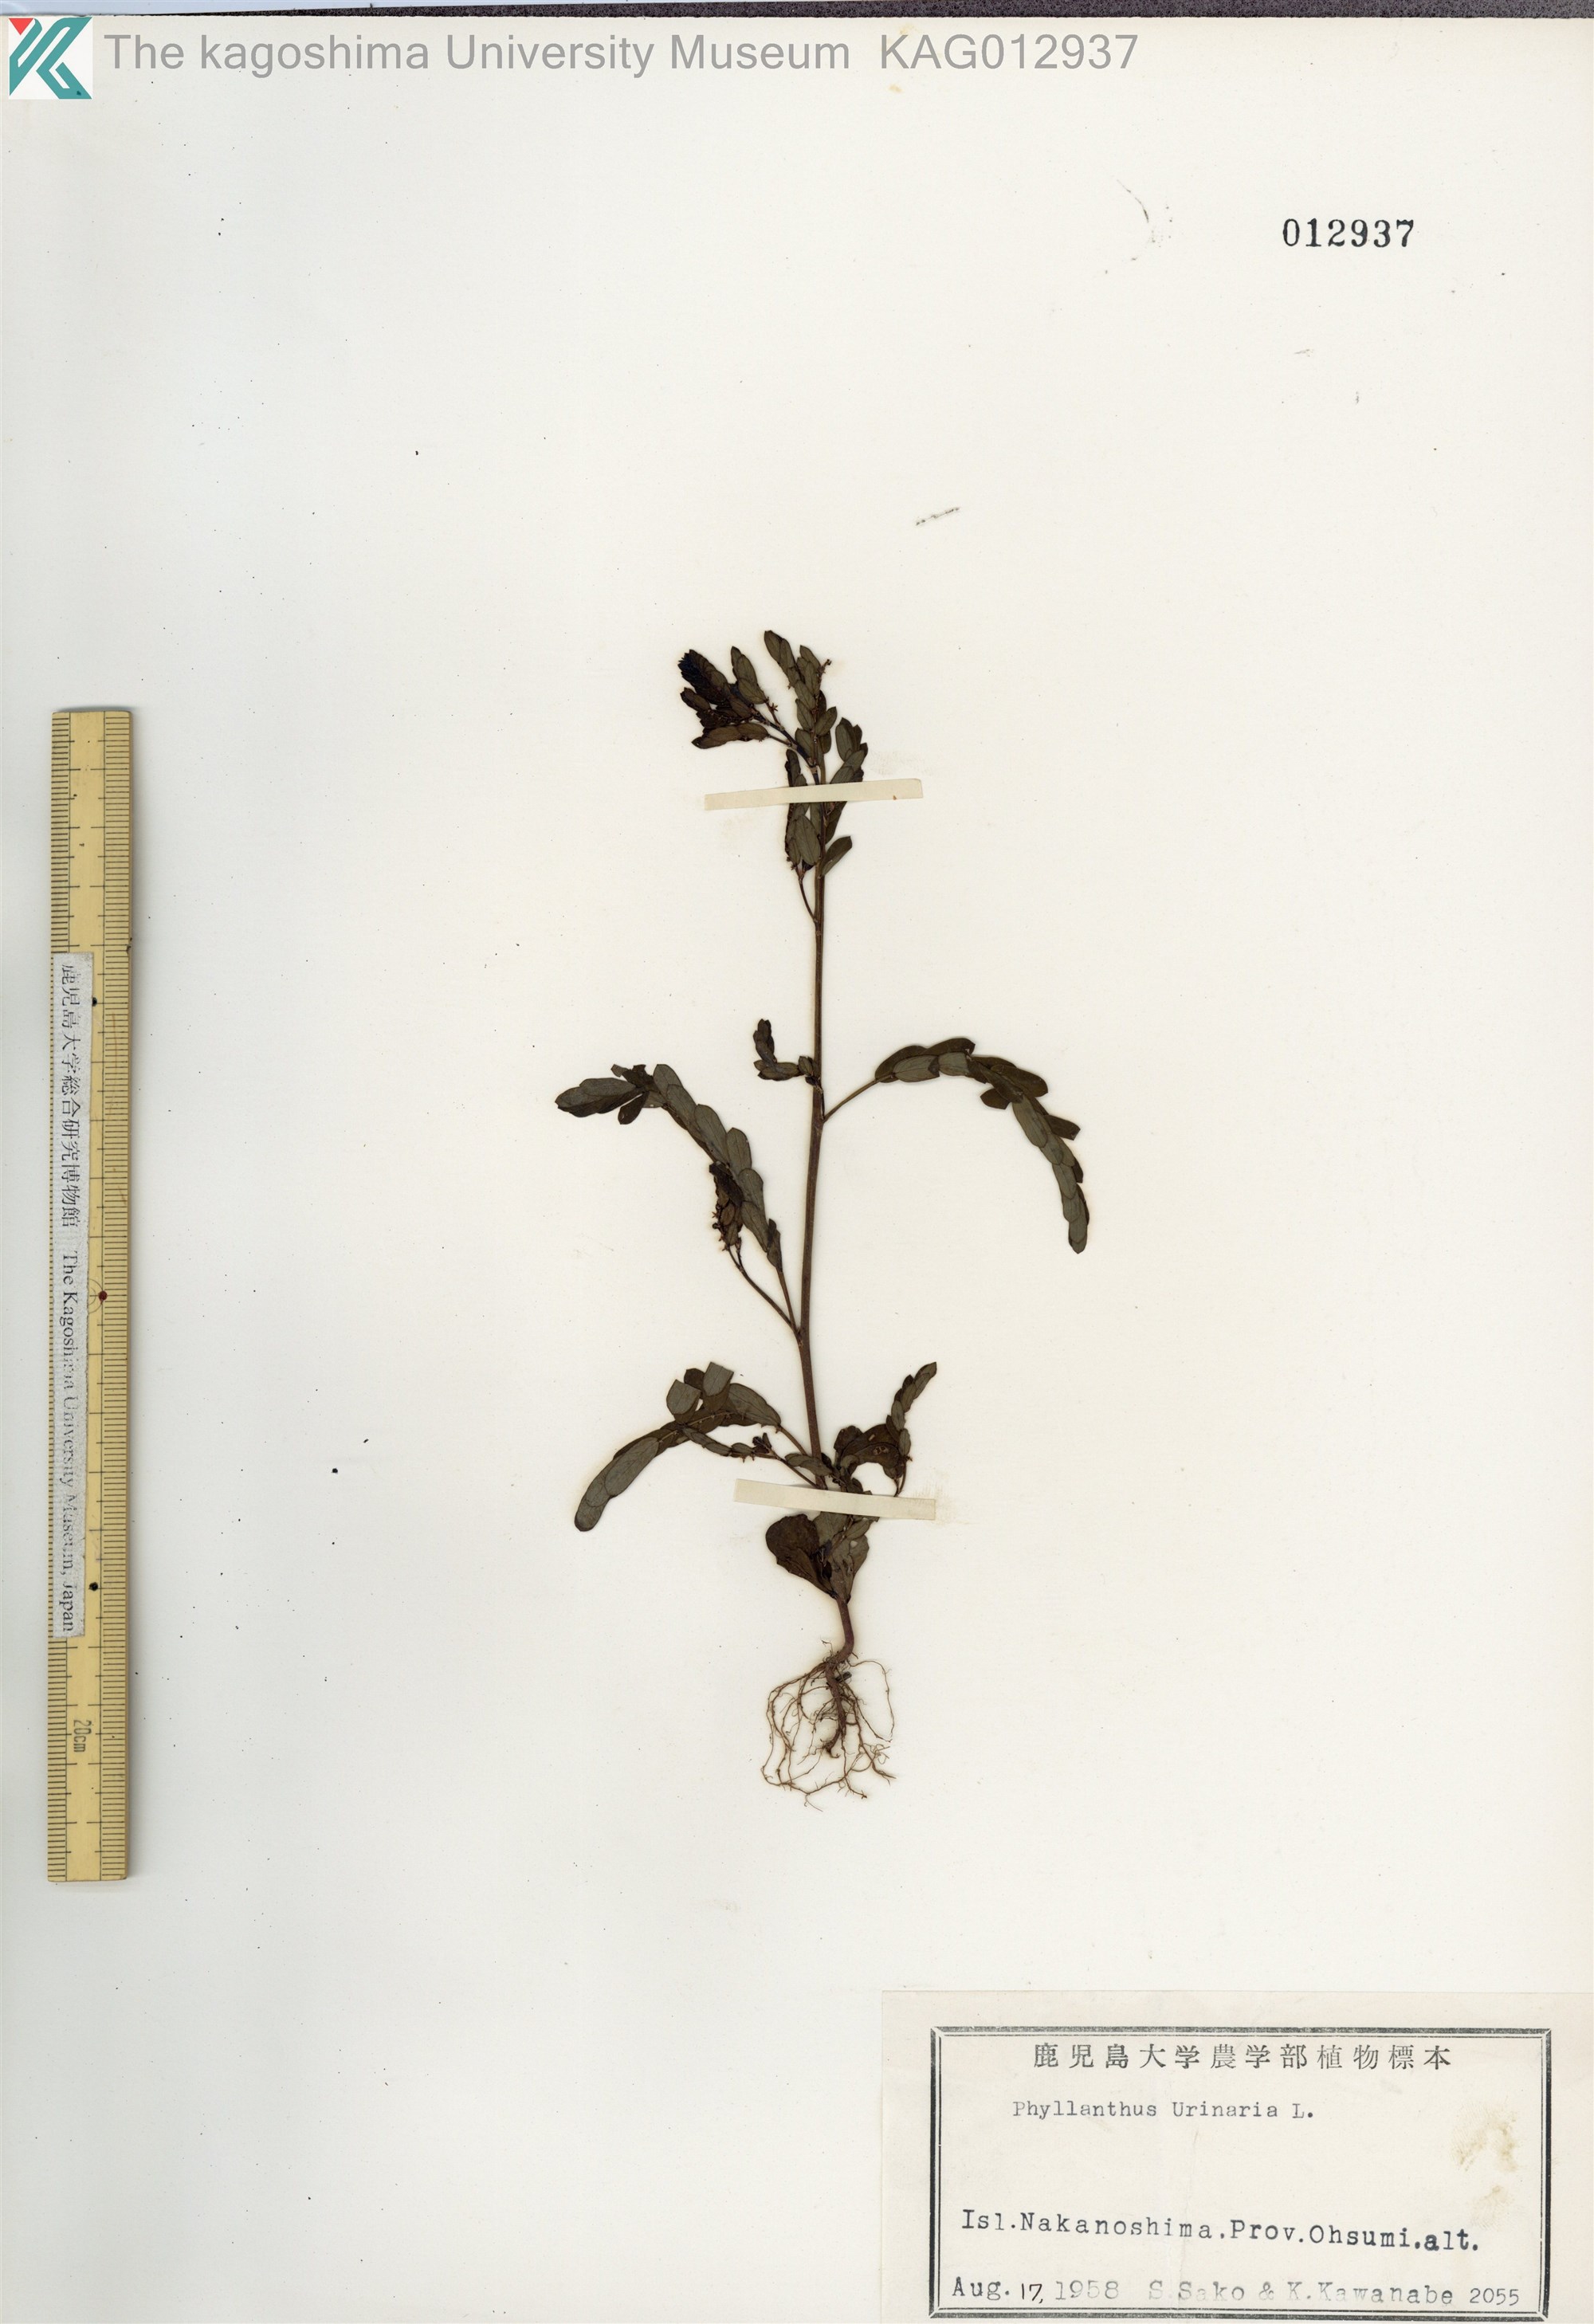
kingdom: Plantae
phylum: Tracheophyta
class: Magnoliopsida
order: Malpighiales
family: Phyllanthaceae
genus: Phyllanthus
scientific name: Phyllanthus urinaria
